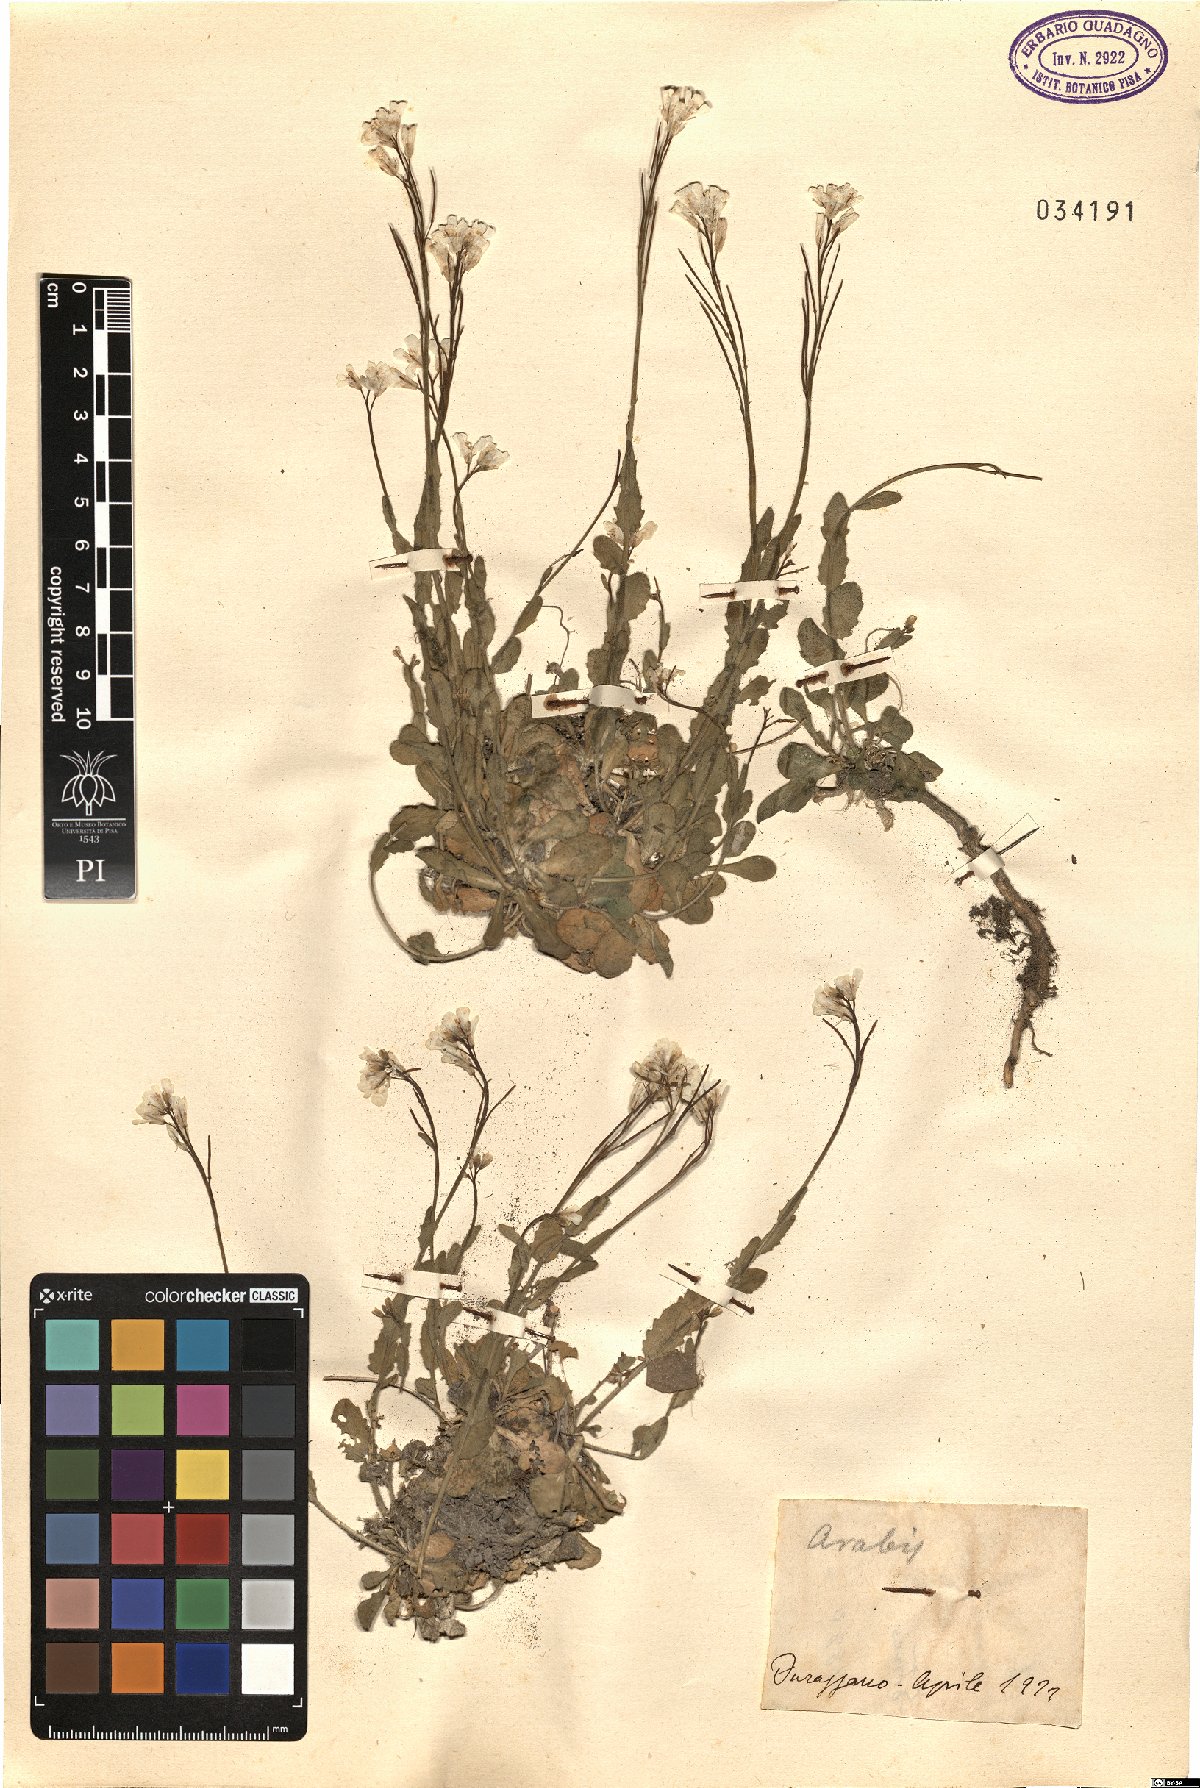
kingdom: Plantae
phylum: Tracheophyta
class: Magnoliopsida
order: Brassicales
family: Brassicaceae
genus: Arabis
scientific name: Arabis
